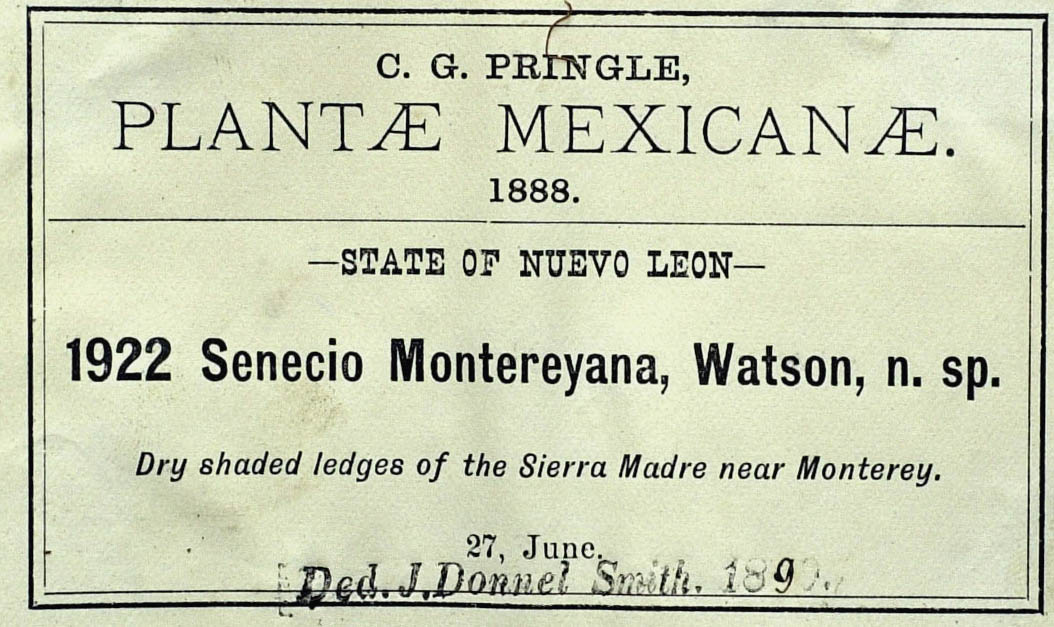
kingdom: Plantae
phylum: Tracheophyta
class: Magnoliopsida
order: Asterales
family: Asteraceae
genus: Packera
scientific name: Packera montereyana
